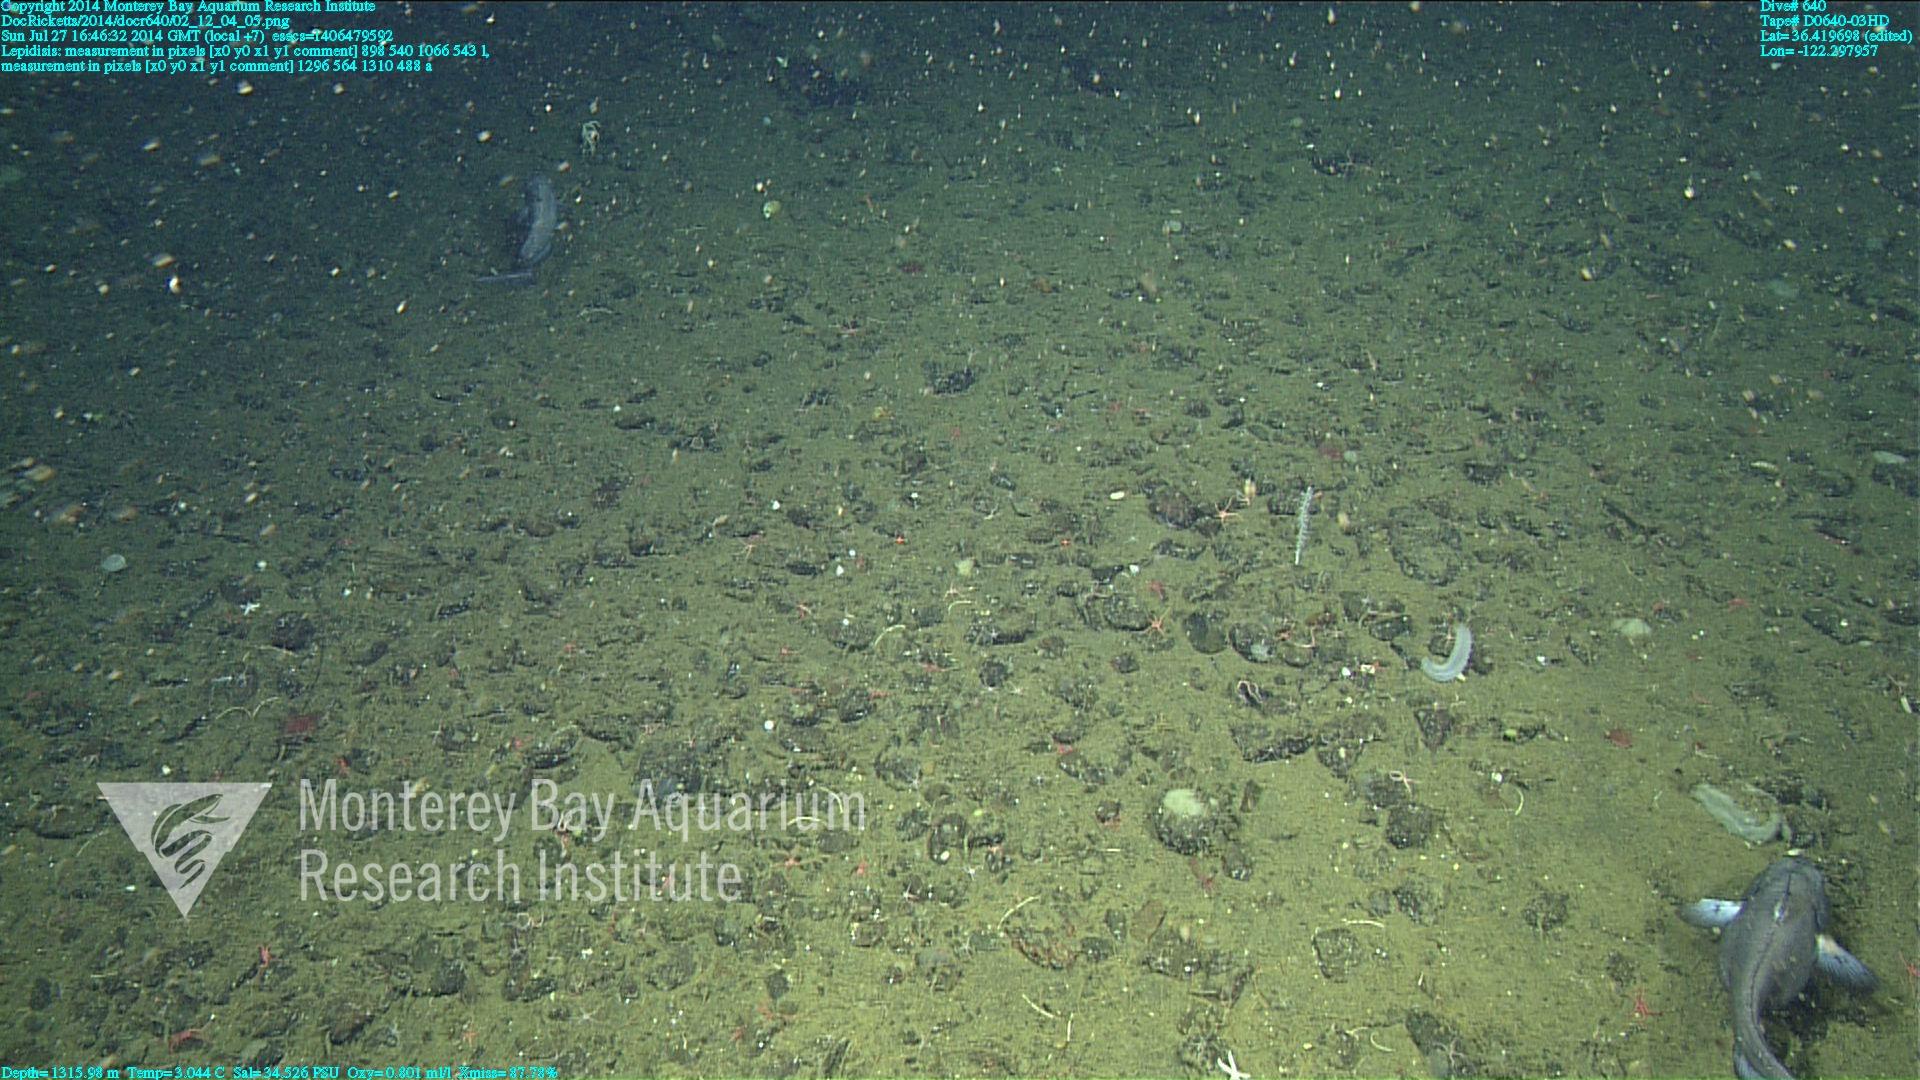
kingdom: Animalia
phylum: Cnidaria
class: Anthozoa
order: Scleralcyonacea
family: Keratoisididae
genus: Lepidisis
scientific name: Lepidisis
